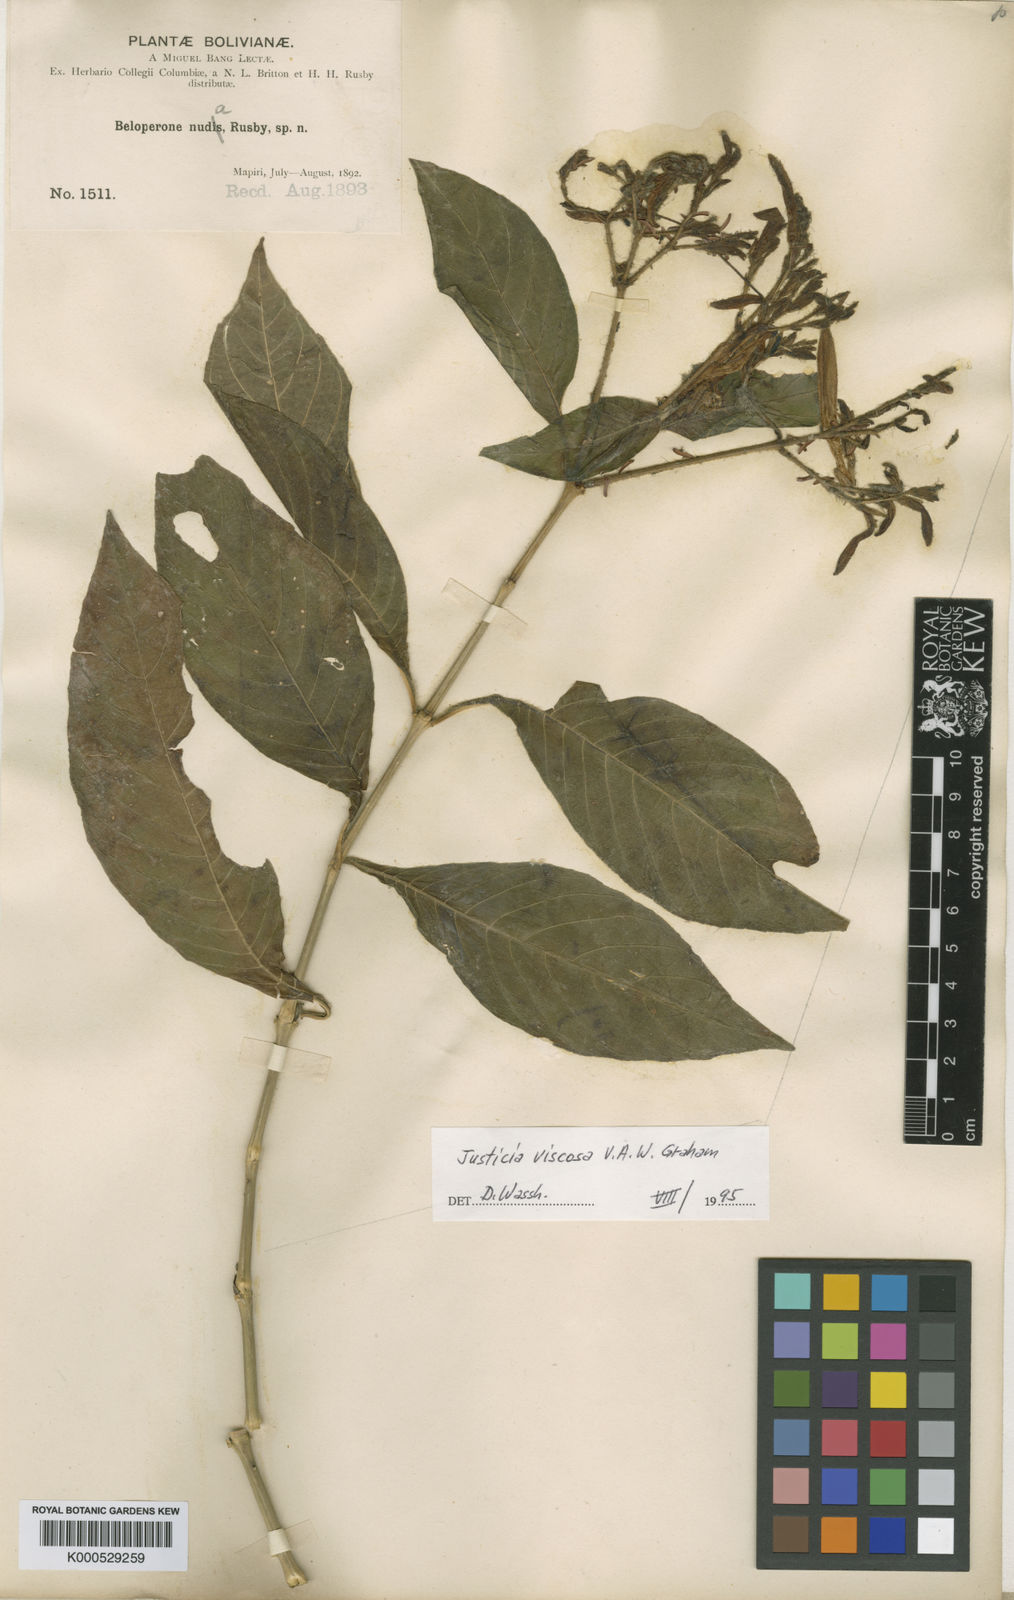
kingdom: Plantae
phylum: Tracheophyta
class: Magnoliopsida
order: Lamiales
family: Acanthaceae
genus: Justicia
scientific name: Justicia boliviensis
